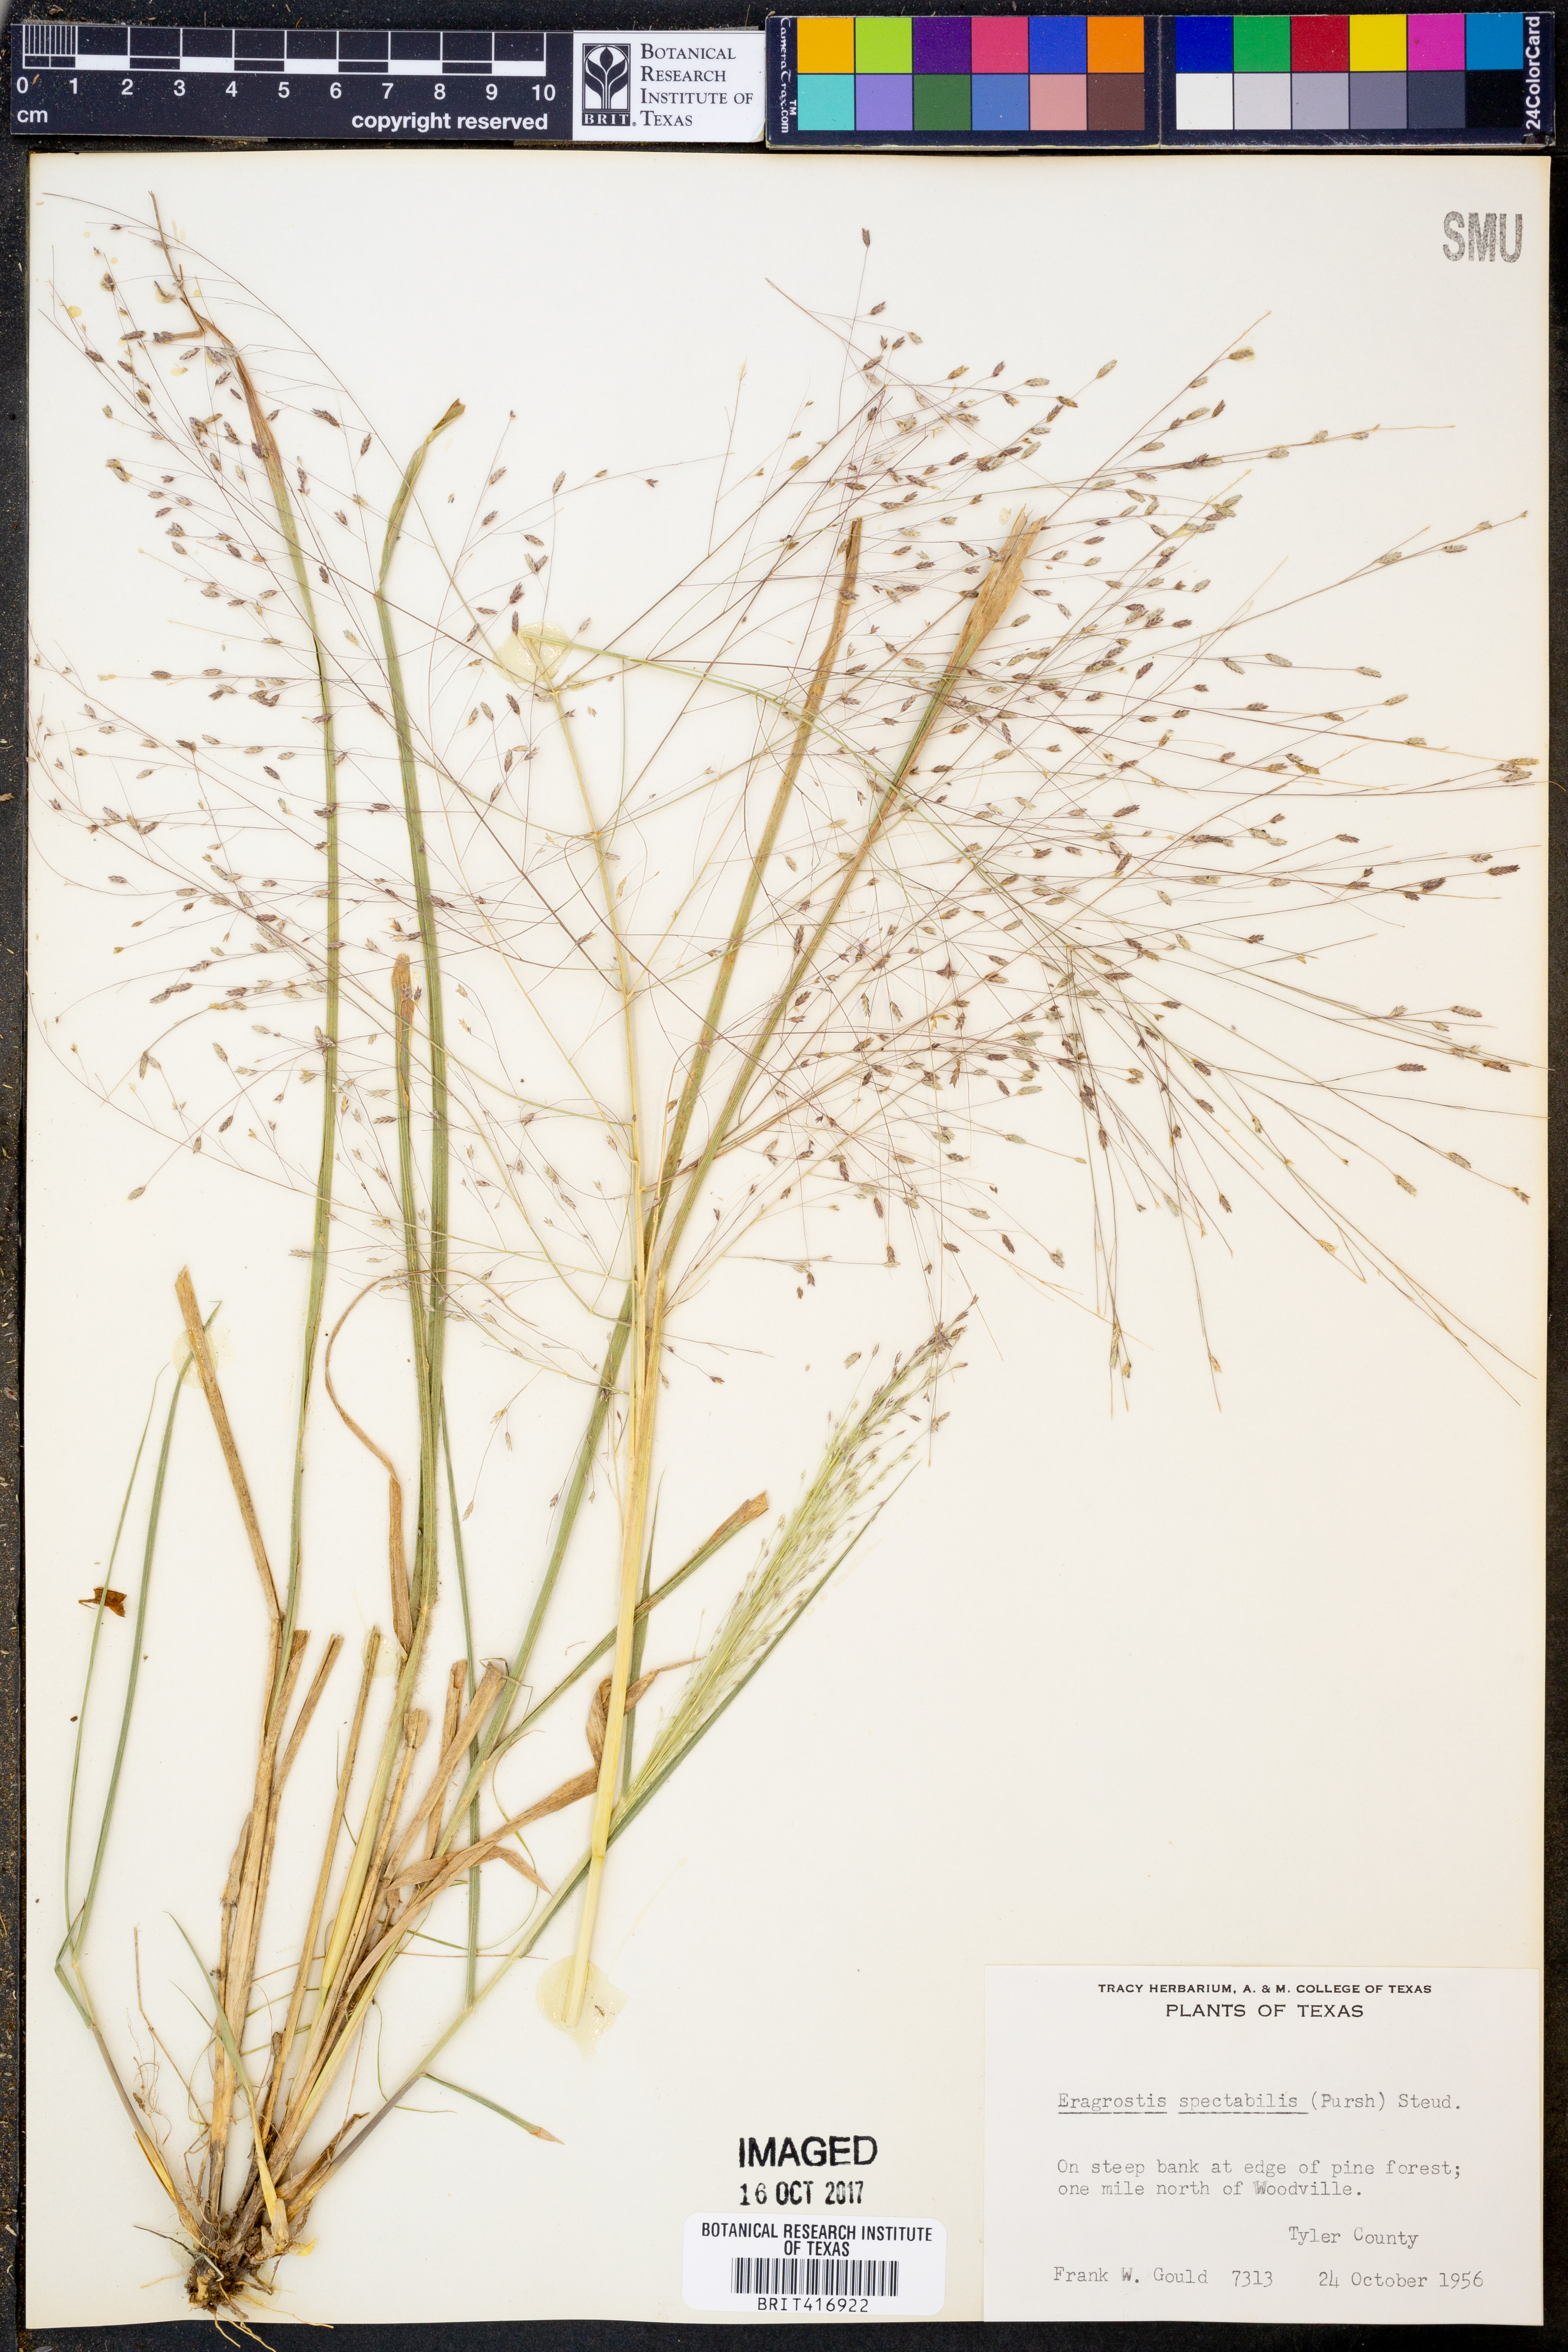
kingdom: Plantae
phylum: Tracheophyta
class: Liliopsida
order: Poales
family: Poaceae
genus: Eragrostis
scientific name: Eragrostis spectabilis
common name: Petticoat-climber
